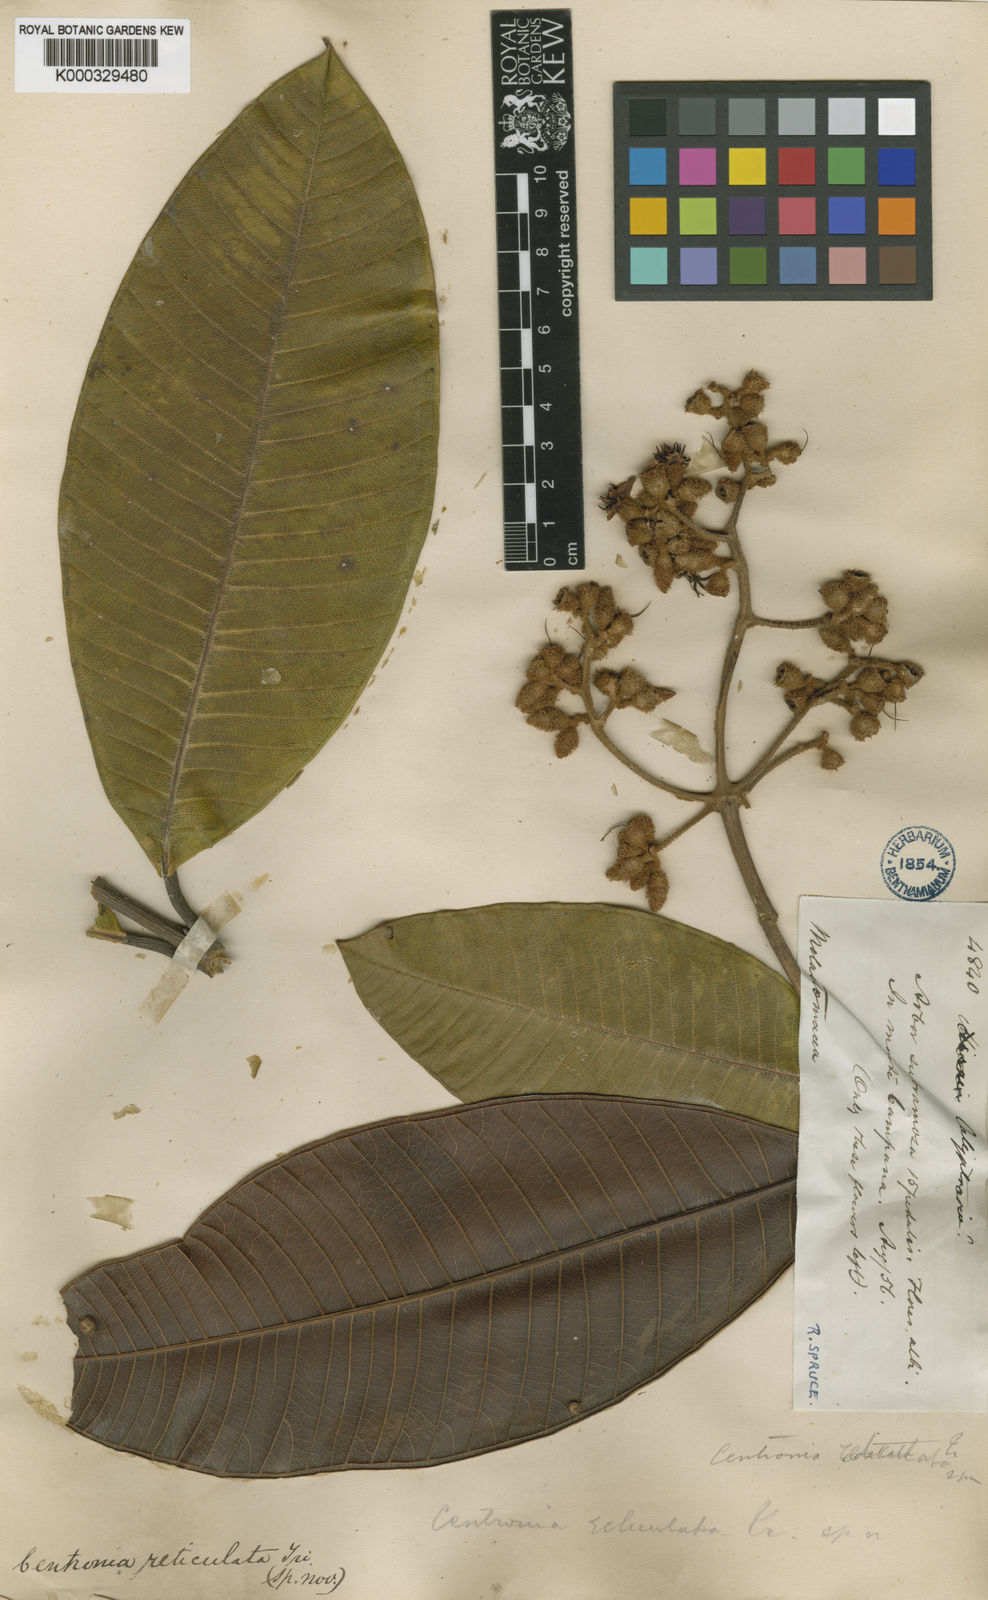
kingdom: Plantae
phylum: Tracheophyta
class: Magnoliopsida
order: Myrtales
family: Melastomataceae
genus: Centronia
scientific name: Centronia reticulata
